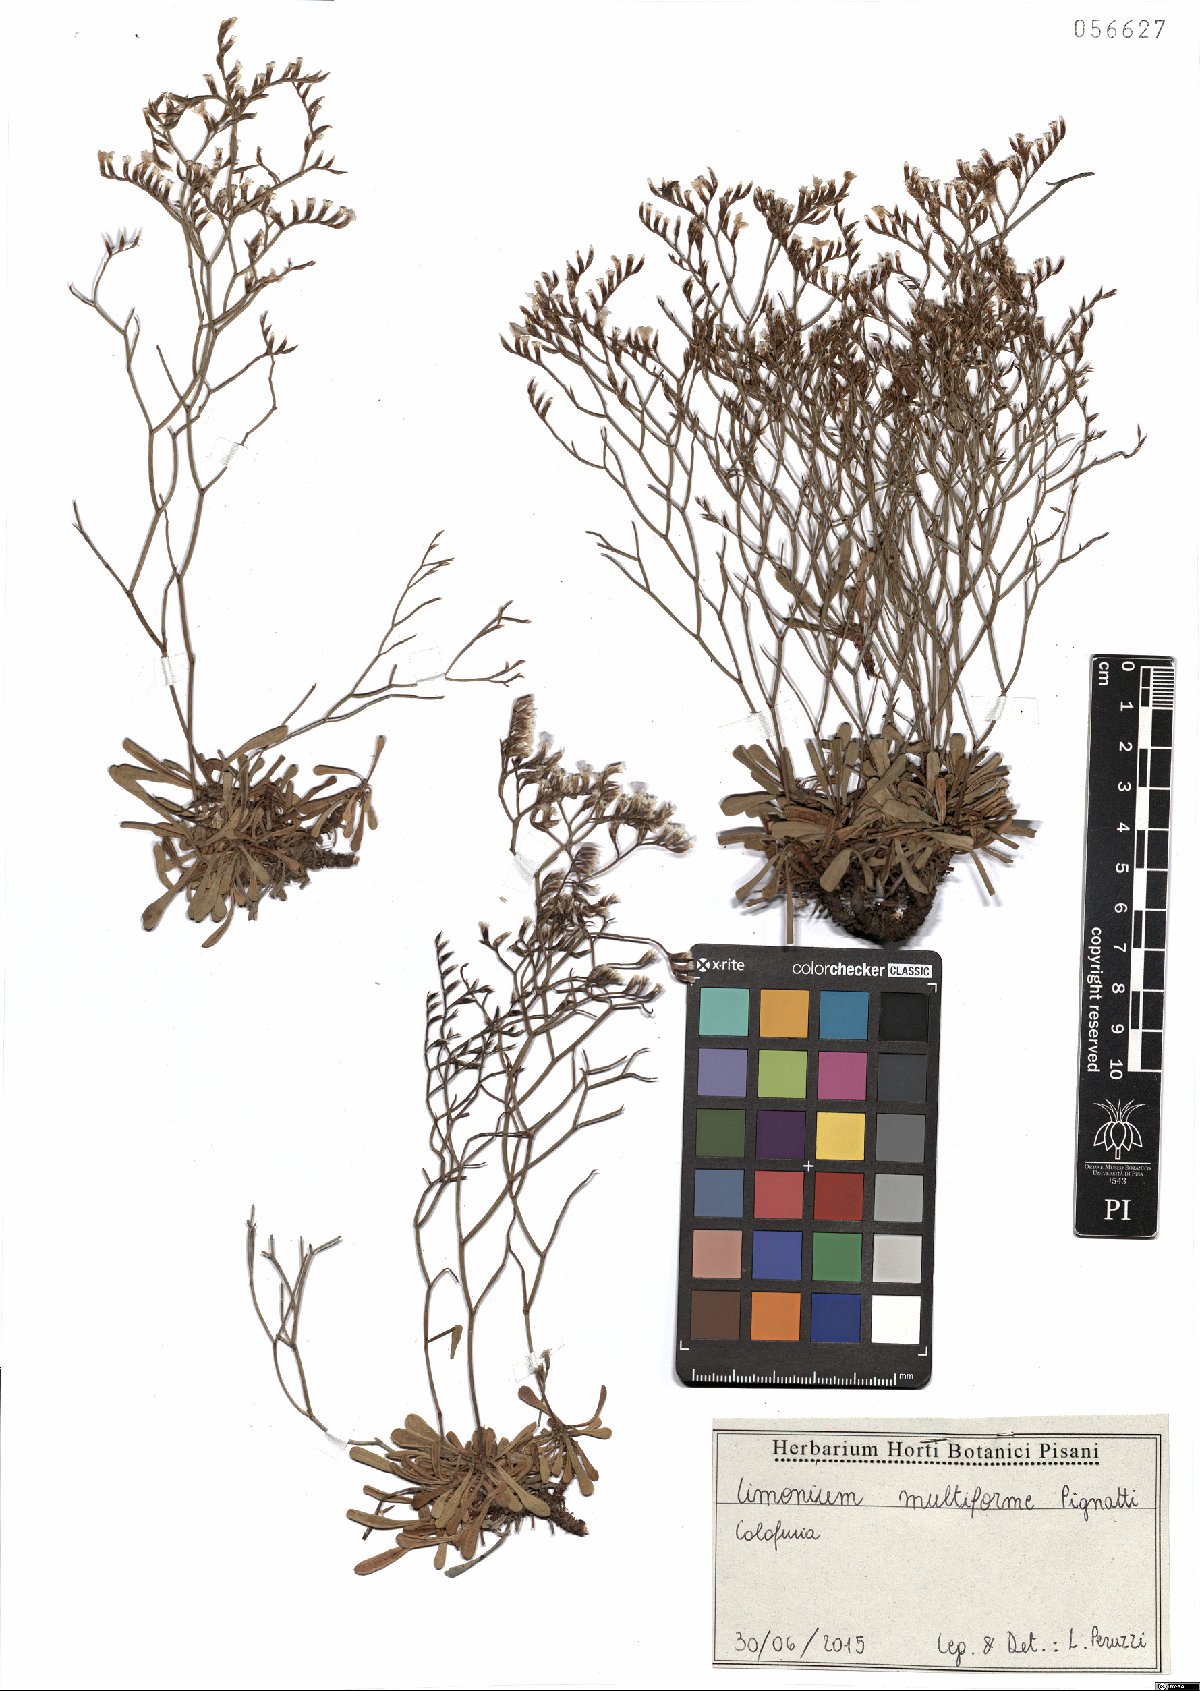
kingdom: Plantae
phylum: Tracheophyta
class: Magnoliopsida
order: Caryophyllales
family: Plumbaginaceae
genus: Limonium
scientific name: Limonium multiforme
